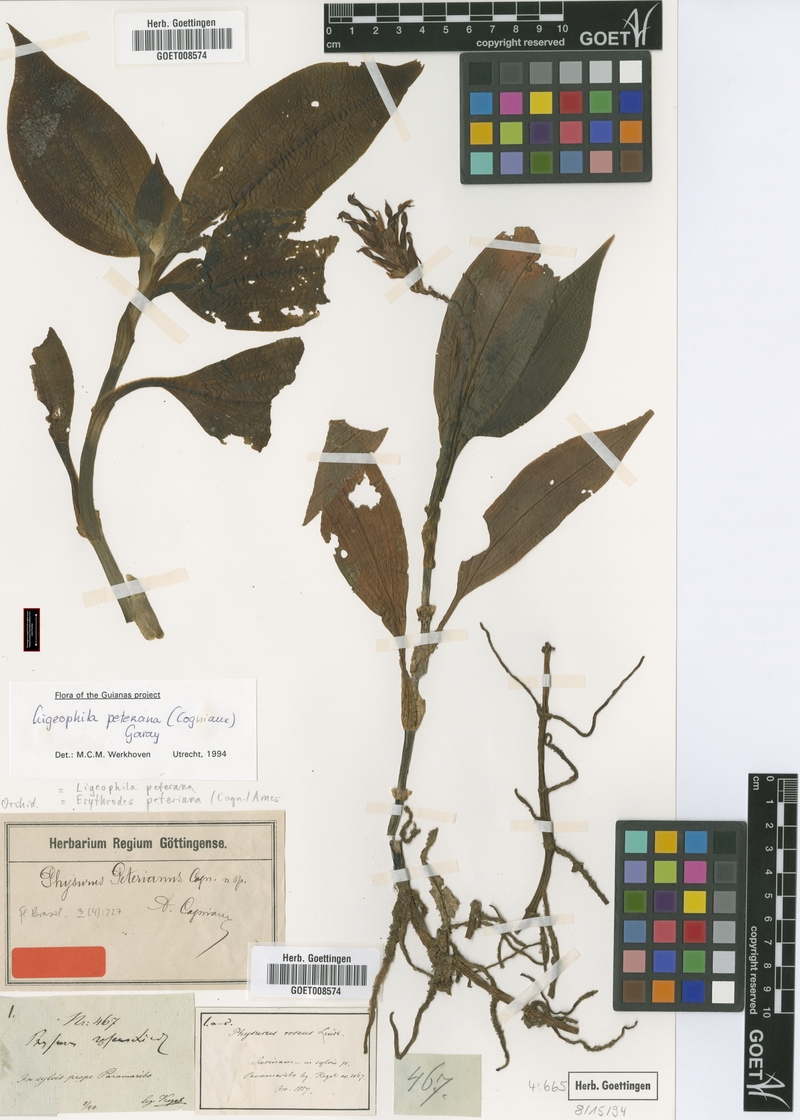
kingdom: Plantae
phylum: Tracheophyta
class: Liliopsida
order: Asparagales
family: Orchidaceae
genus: Aspidogyne
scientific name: Aspidogyne peteriana
